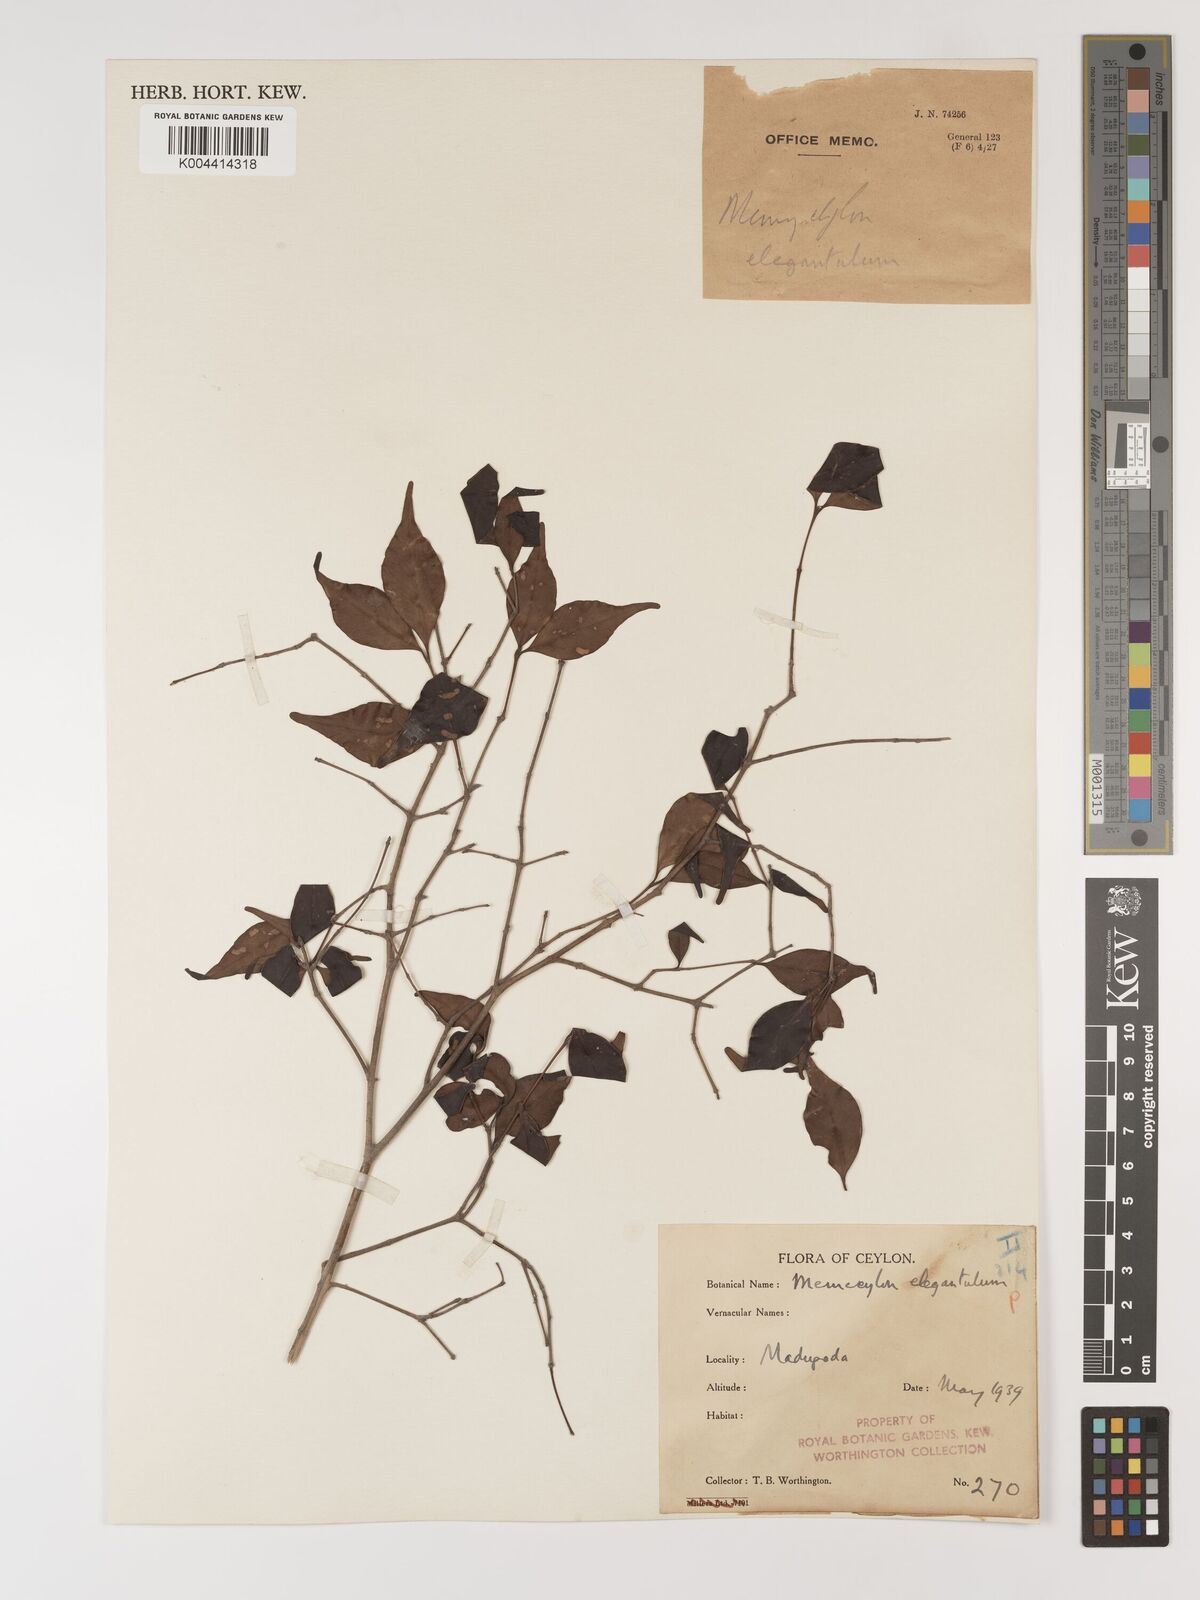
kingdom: Plantae
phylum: Tracheophyta
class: Magnoliopsida
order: Myrtales
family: Melastomataceae
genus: Memecylon
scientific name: Memecylon capitellatum
